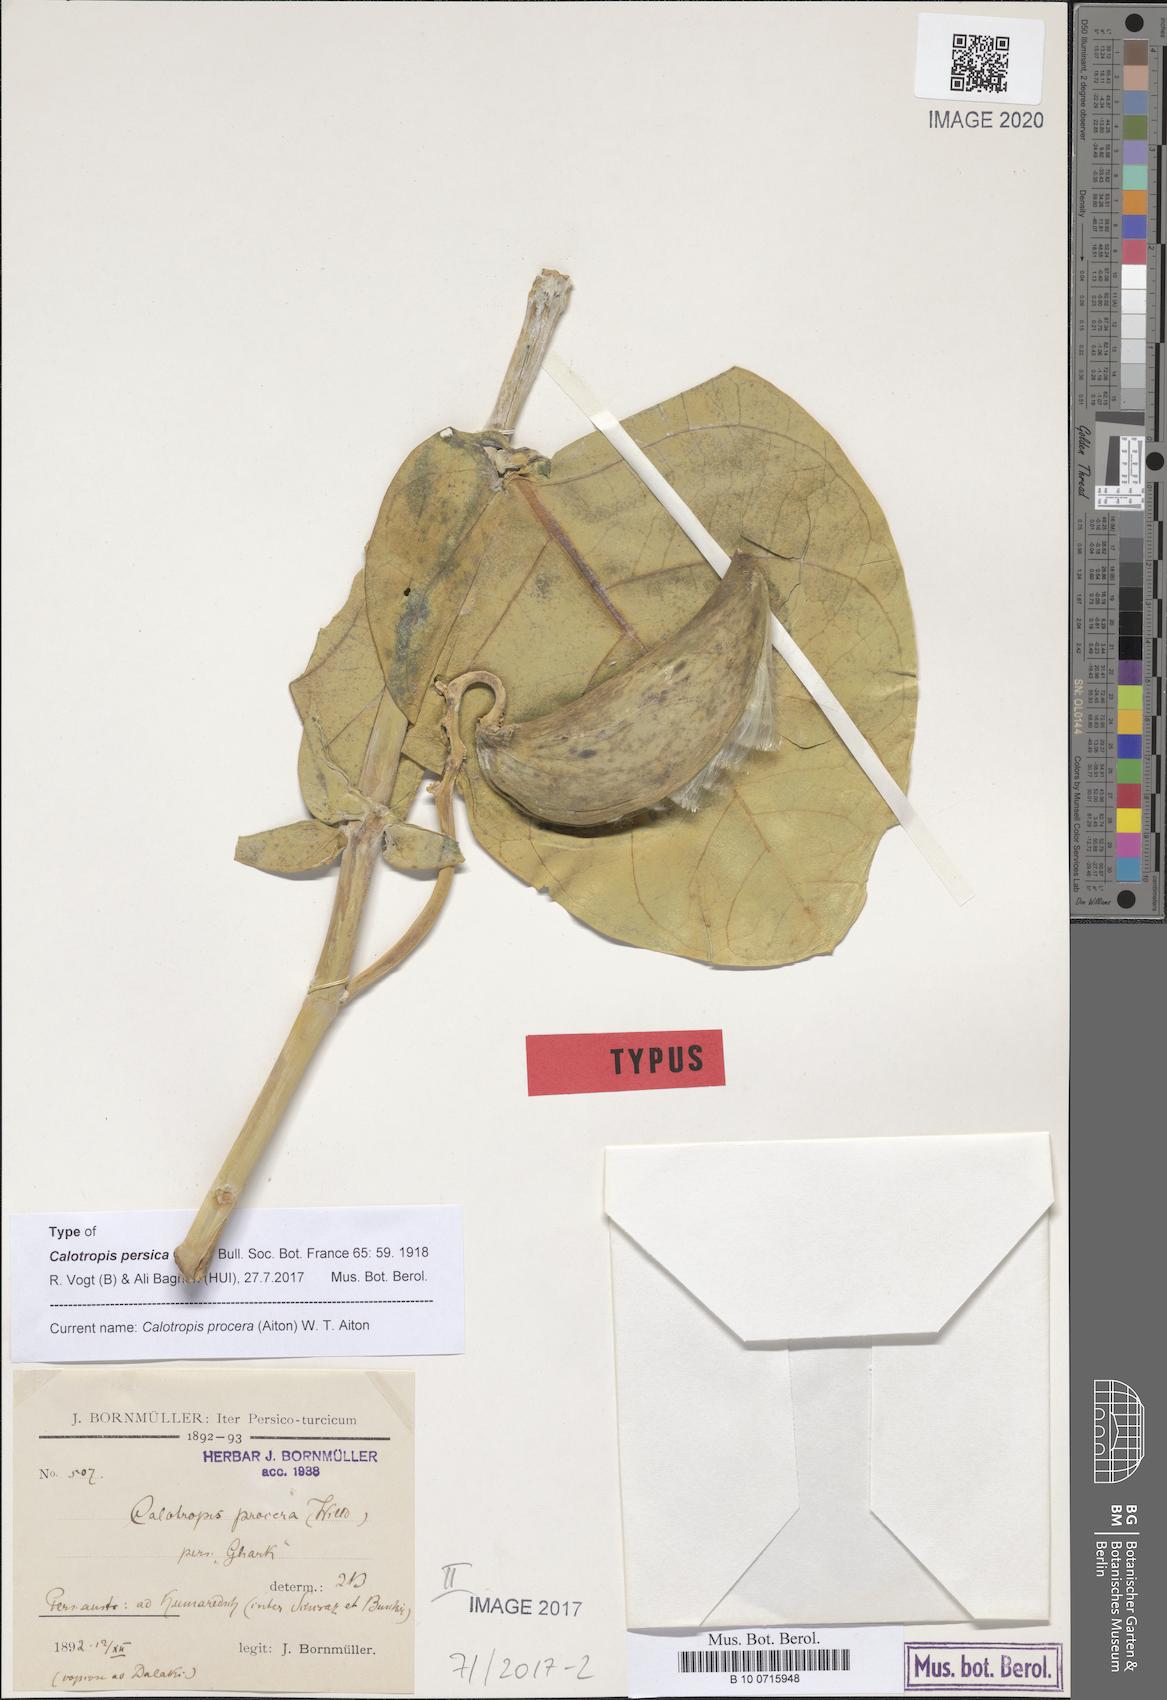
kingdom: Plantae
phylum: Tracheophyta
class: Magnoliopsida
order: Gentianales
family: Apocynaceae
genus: Calotropis
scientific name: Calotropis procera
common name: Roostertree
